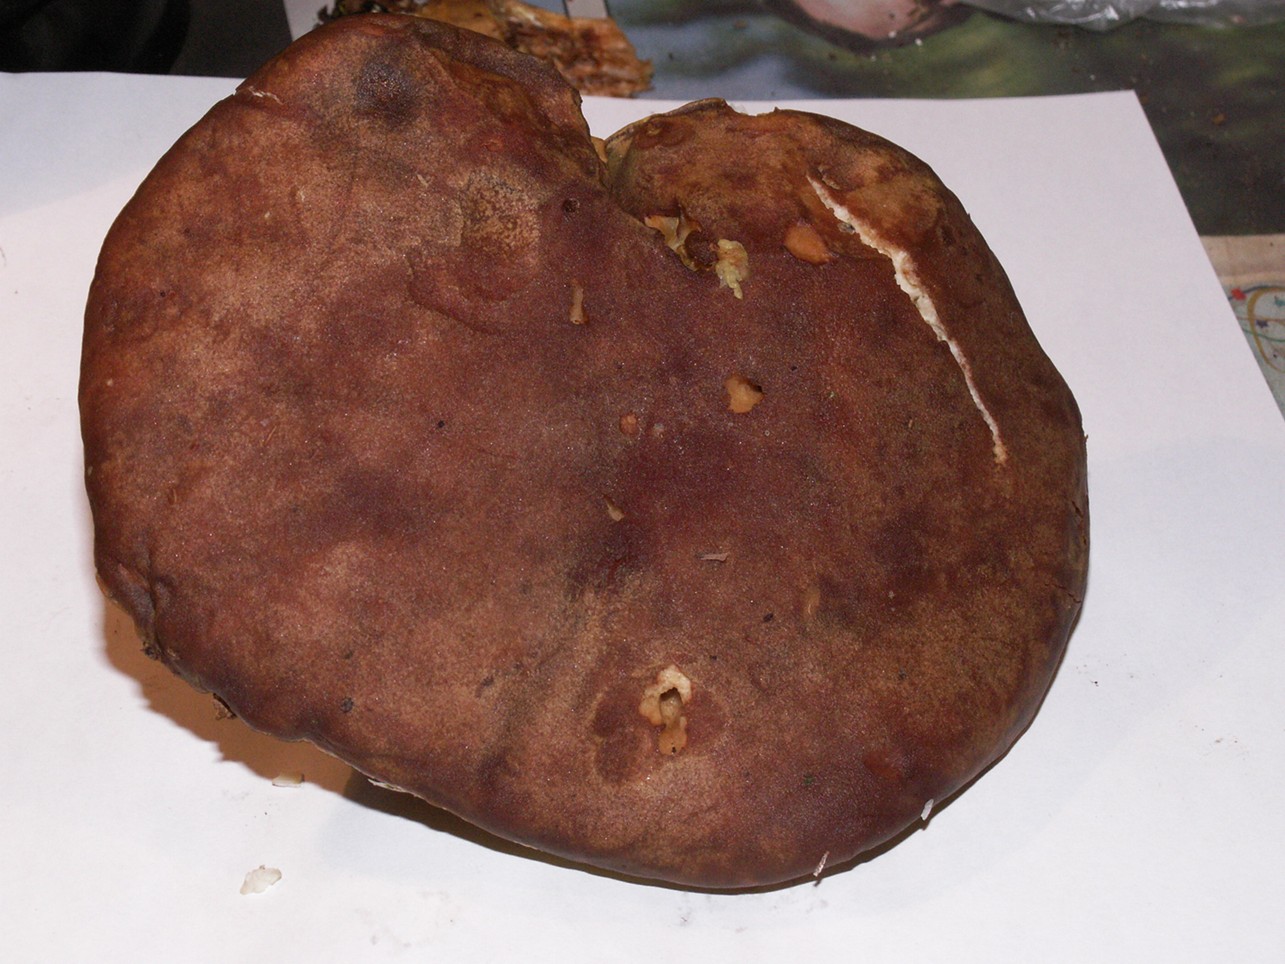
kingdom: Fungi
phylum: Basidiomycota
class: Agaricomycetes
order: Boletales
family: Boletaceae
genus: Xerocomus
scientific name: Xerocomus ferrugineus
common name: vaskeskinds-rørhat
